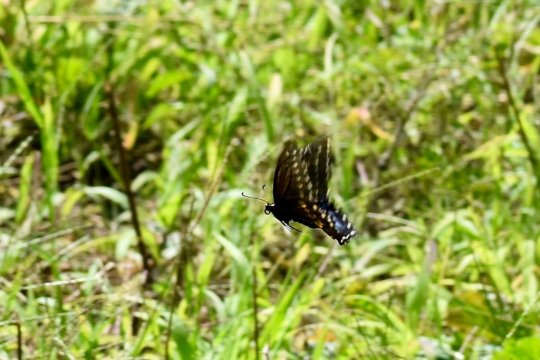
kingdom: Animalia
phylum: Arthropoda
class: Insecta
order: Lepidoptera
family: Papilionidae
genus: Papilio
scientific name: Papilio polyxenes
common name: Black Swallowtail
